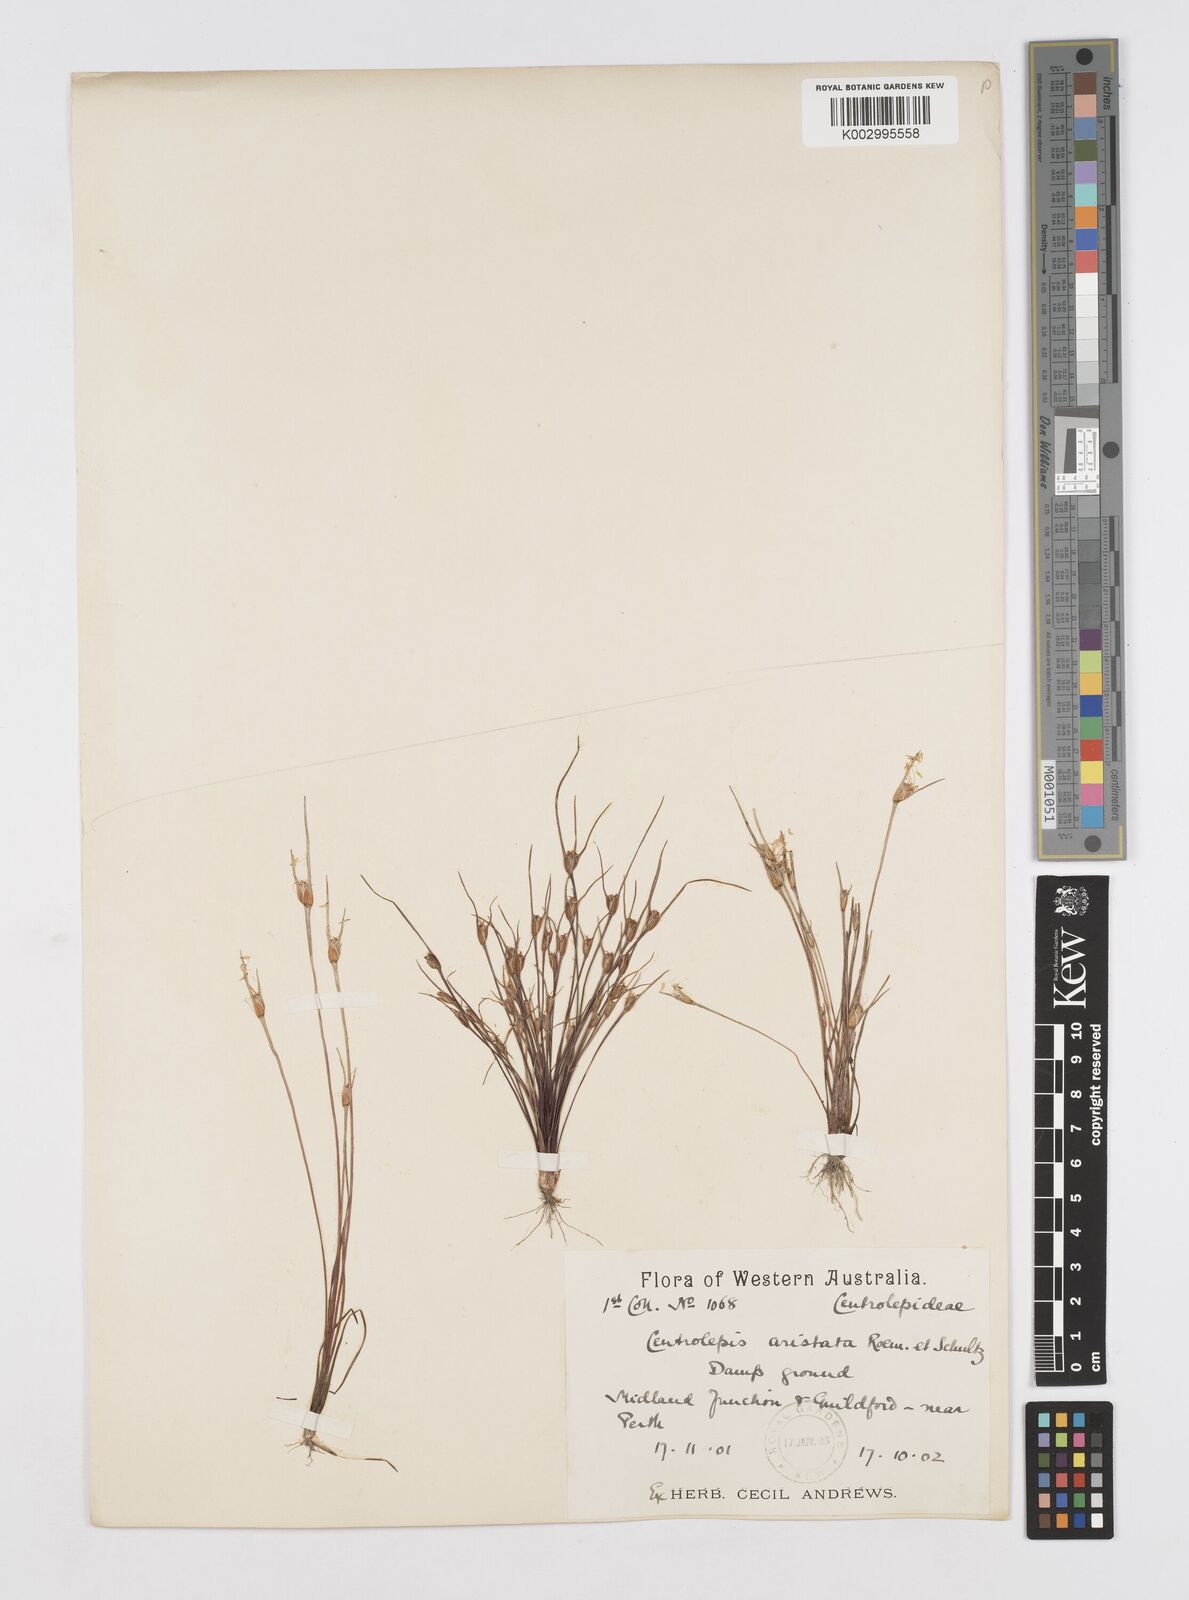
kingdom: Plantae
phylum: Tracheophyta
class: Liliopsida
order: Poales
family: Restionaceae
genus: Centrolepis
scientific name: Centrolepis aristata
